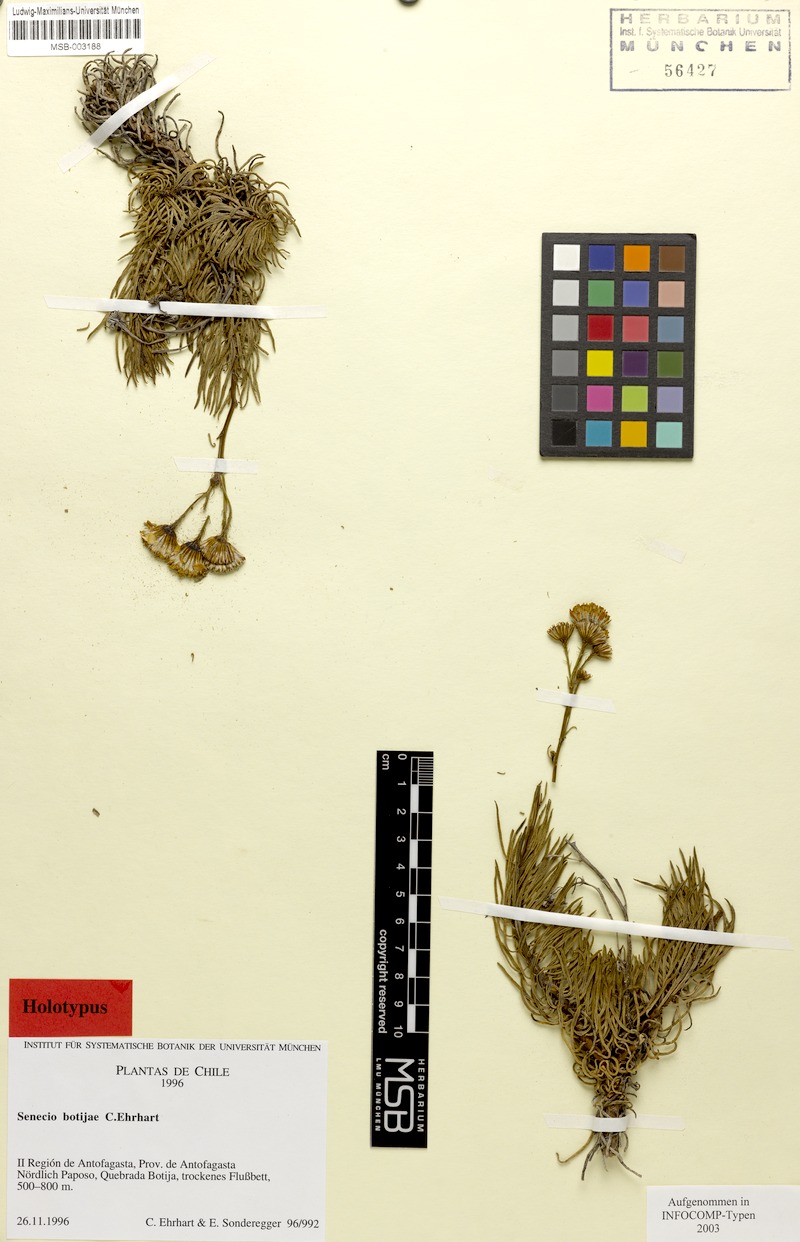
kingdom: Plantae
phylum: Tracheophyta
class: Magnoliopsida
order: Asterales
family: Asteraceae
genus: Senecio
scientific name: Senecio botijae
